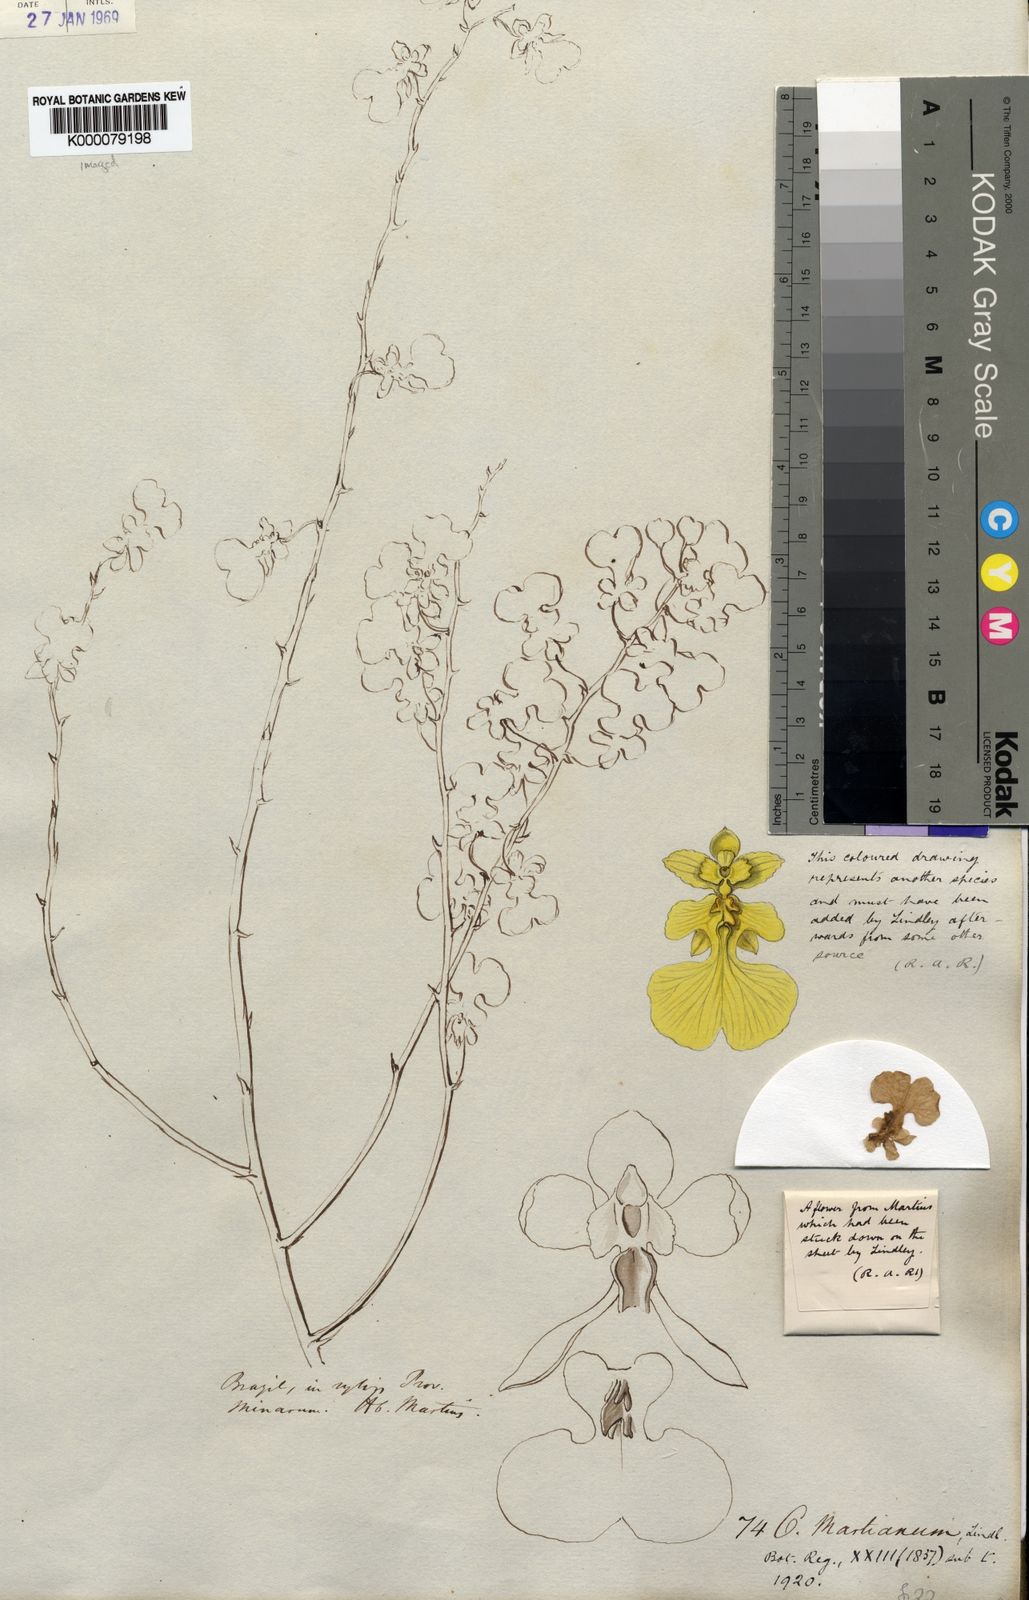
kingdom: Plantae
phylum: Tracheophyta
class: Liliopsida
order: Asparagales
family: Orchidaceae
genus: Gomesa
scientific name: Gomesa martiana
